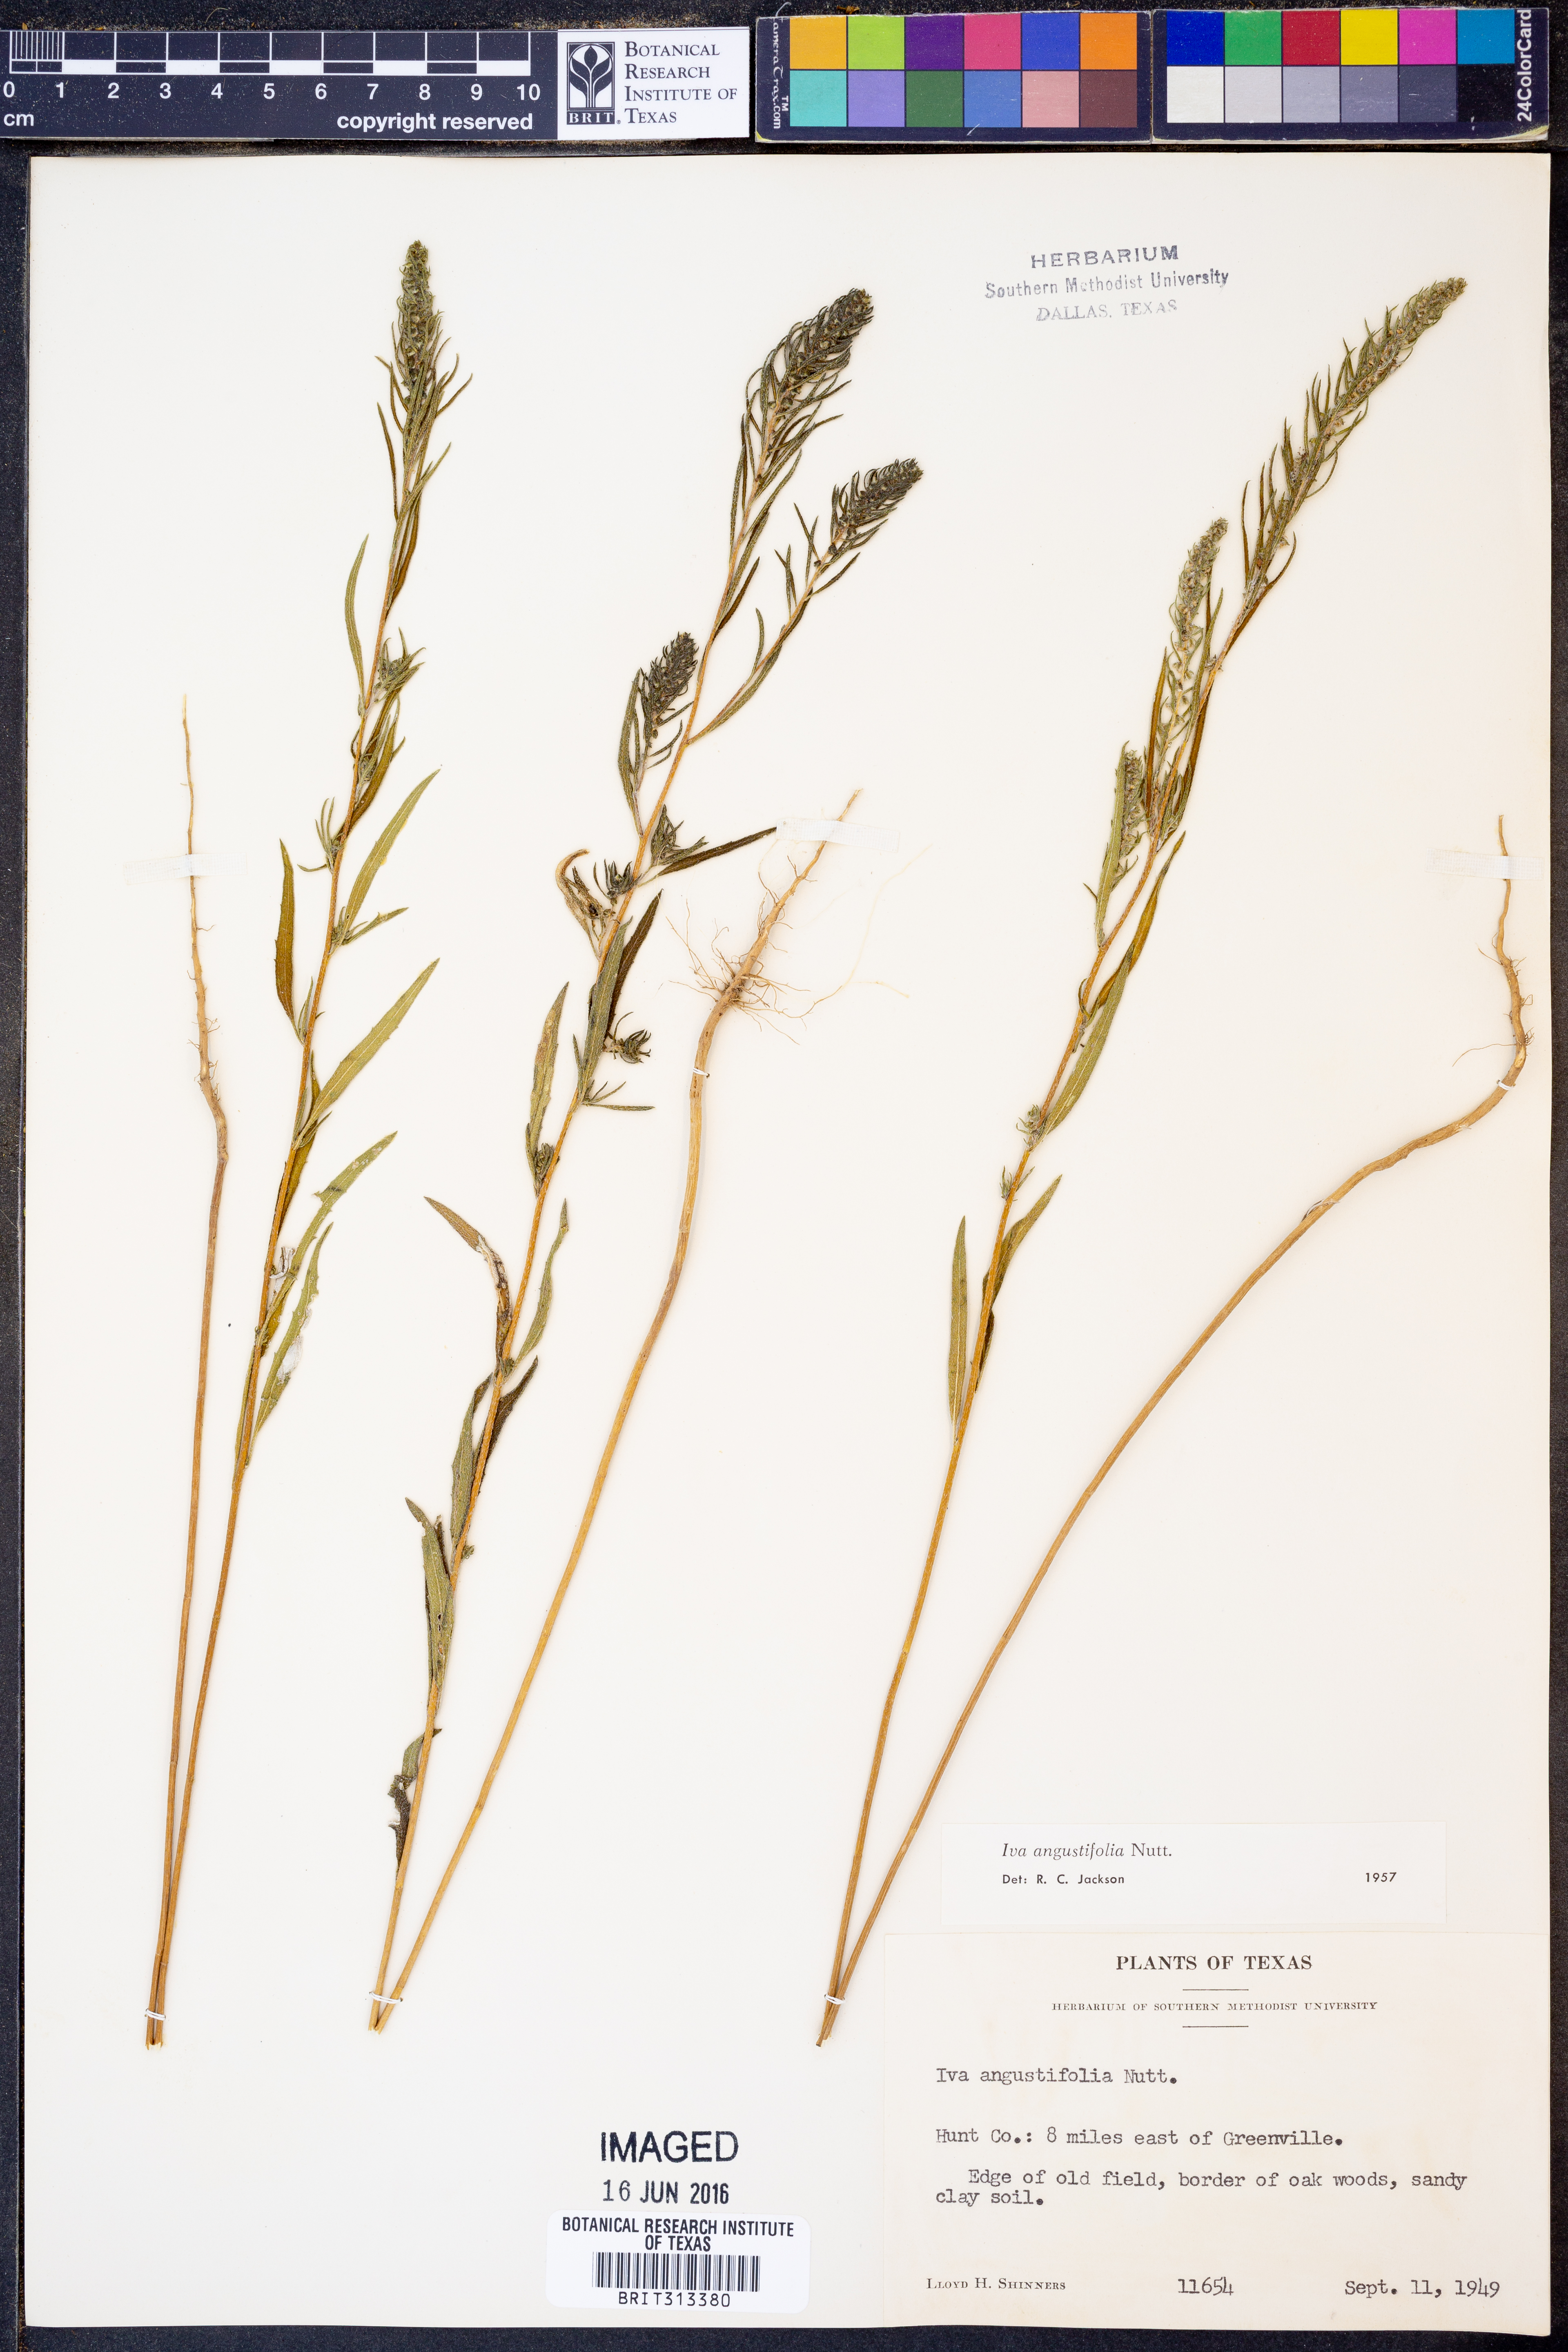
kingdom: Plantae
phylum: Tracheophyta
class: Magnoliopsida
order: Asterales
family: Asteraceae
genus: Iva
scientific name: Iva asperifolia
